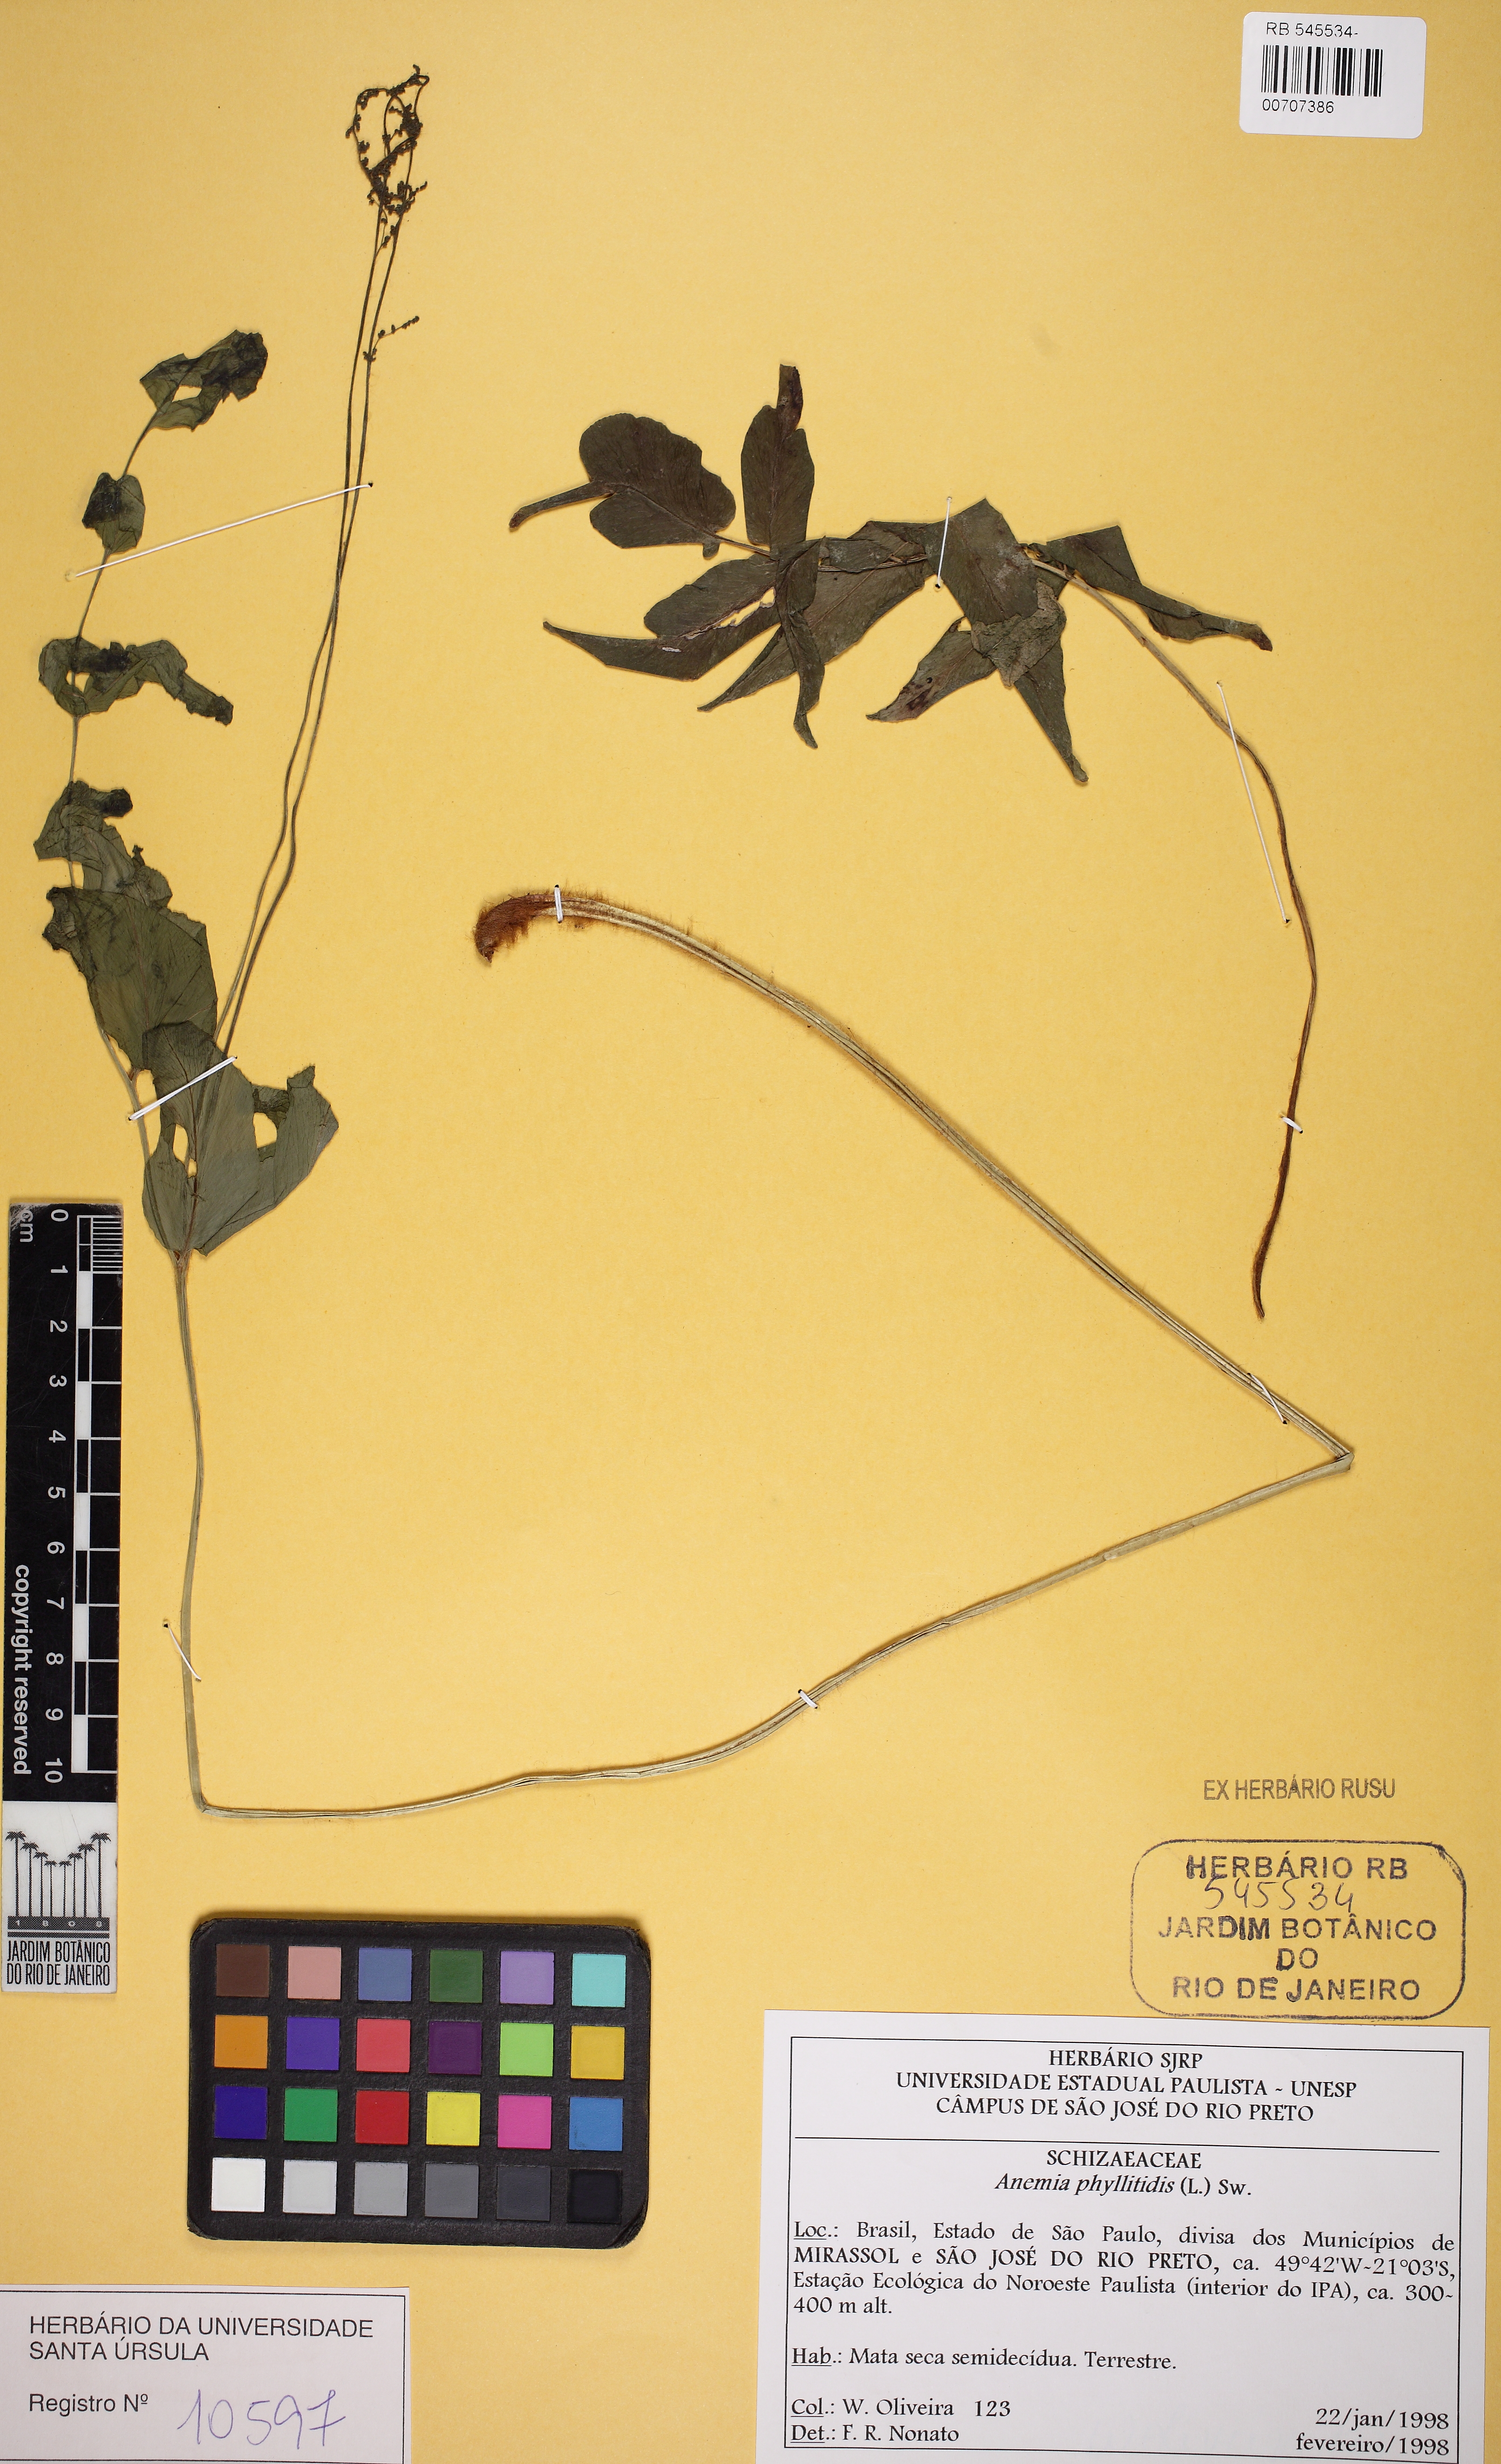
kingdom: Plantae
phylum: Tracheophyta
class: Polypodiopsida
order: Schizaeales
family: Anemiaceae
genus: Anemia
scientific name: Anemia phyllitidis
